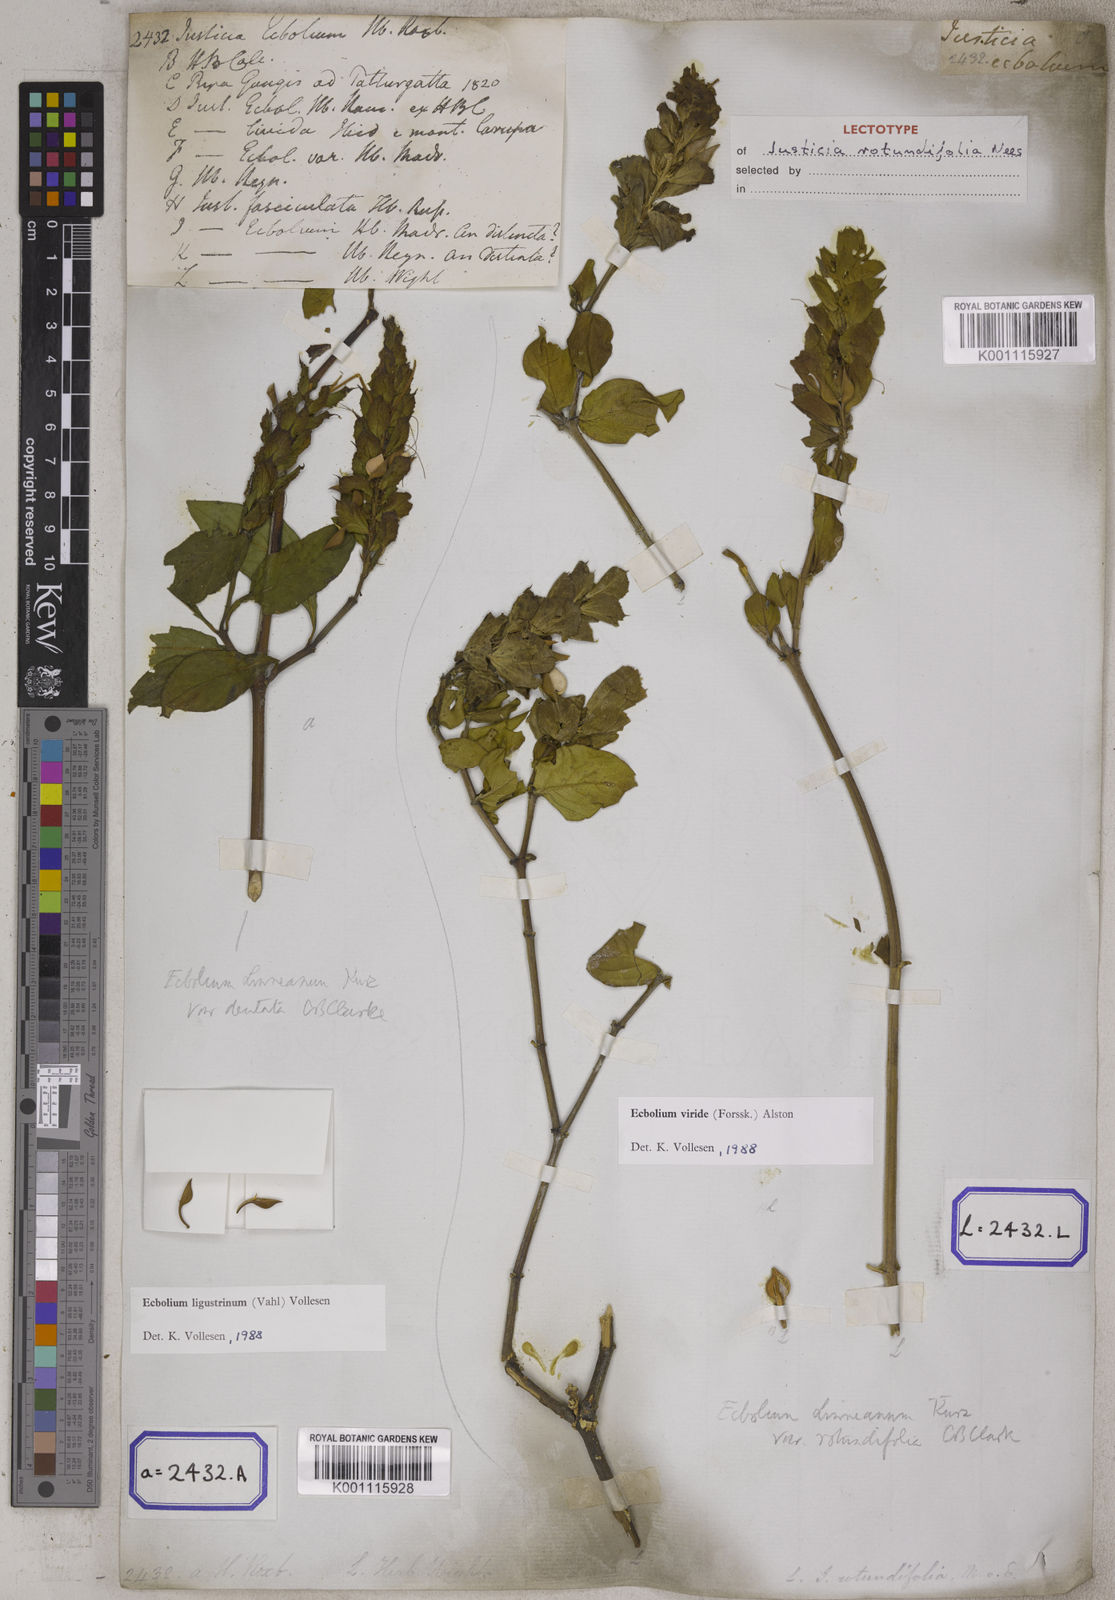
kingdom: Plantae
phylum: Tracheophyta
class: Magnoliopsida
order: Lamiales
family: Acanthaceae
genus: Ecbolium
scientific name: Ecbolium ligustrinum
